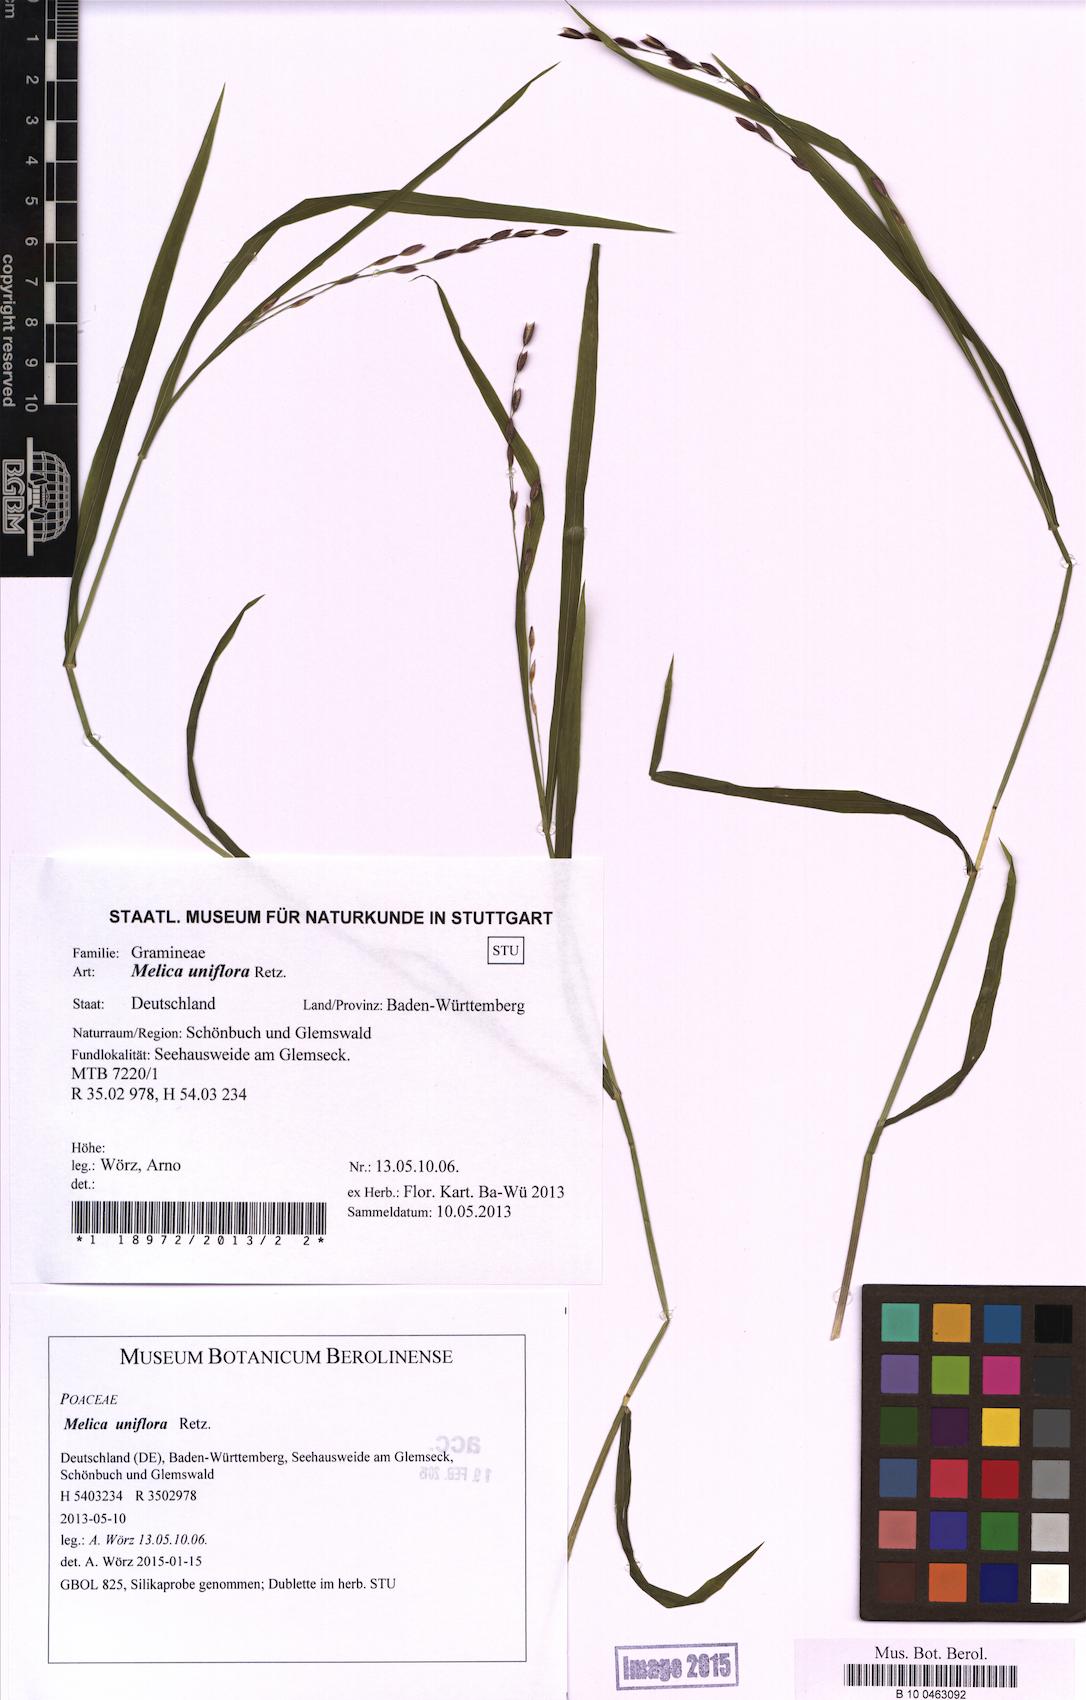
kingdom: Plantae
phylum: Tracheophyta
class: Liliopsida
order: Poales
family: Poaceae
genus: Melica
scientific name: Melica uniflora
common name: Wood melick
